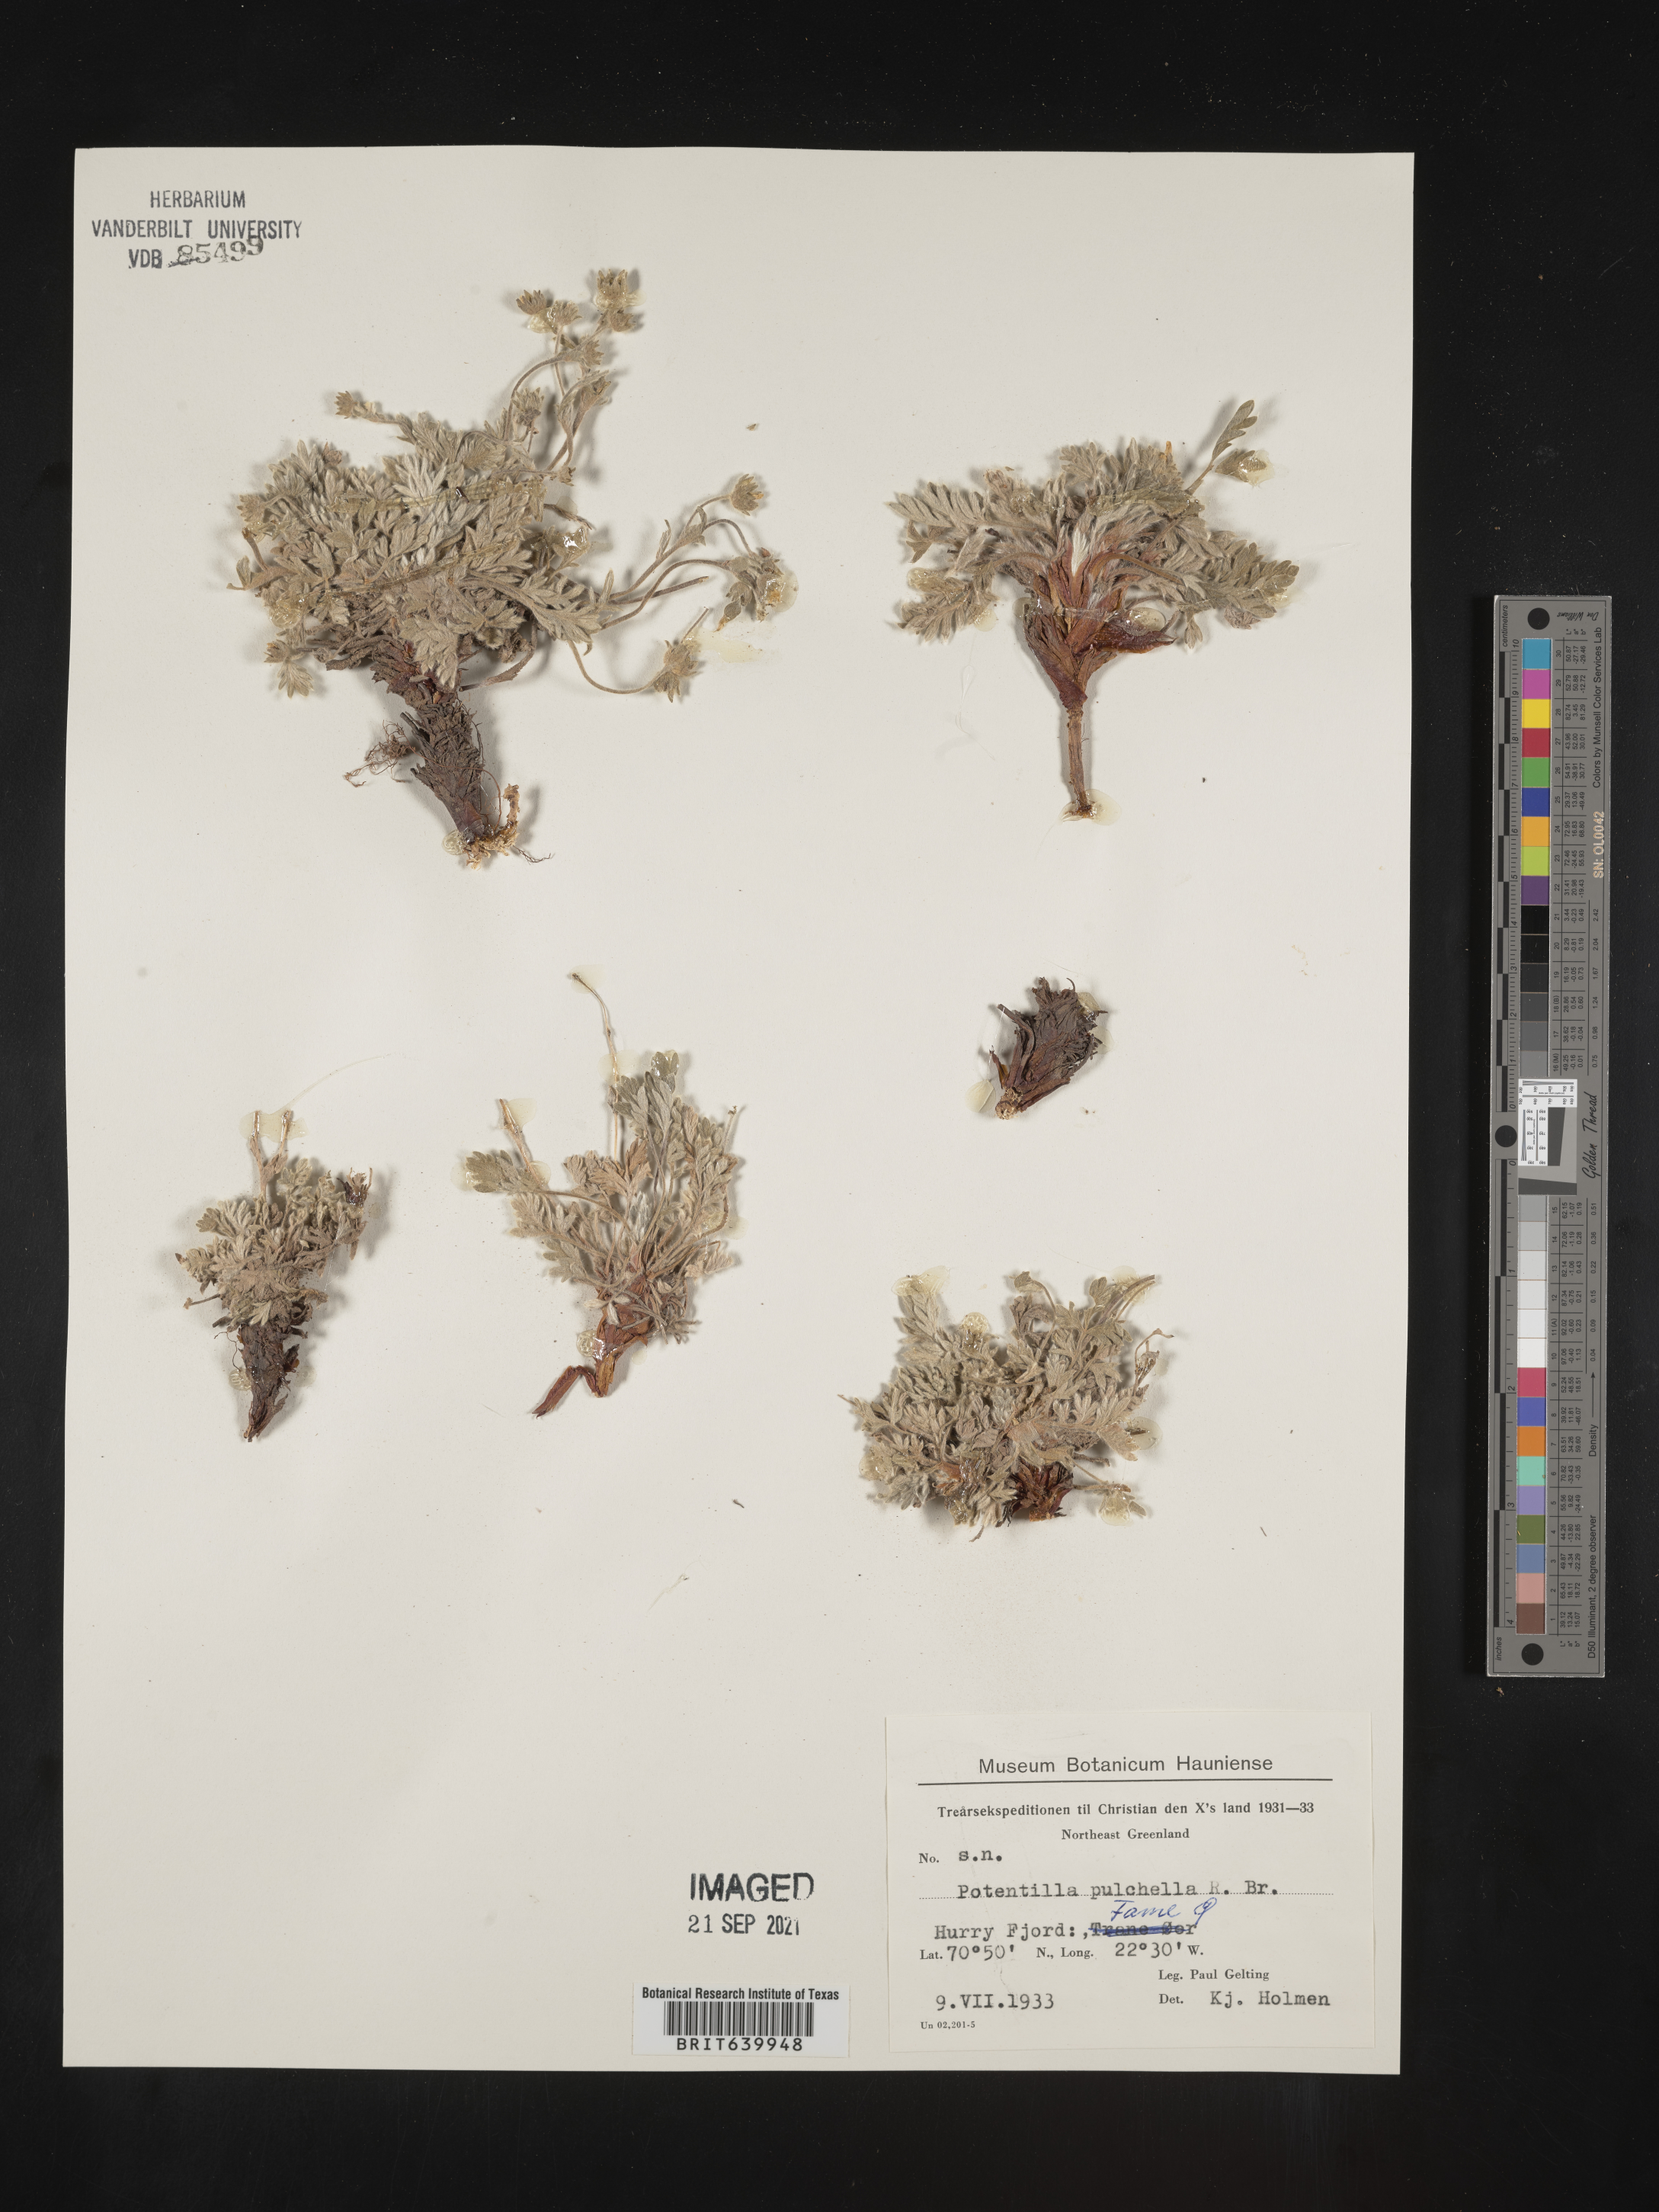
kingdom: Plantae
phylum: Tracheophyta
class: Magnoliopsida
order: Rosales
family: Rosaceae
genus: Potentilla
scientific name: Potentilla
